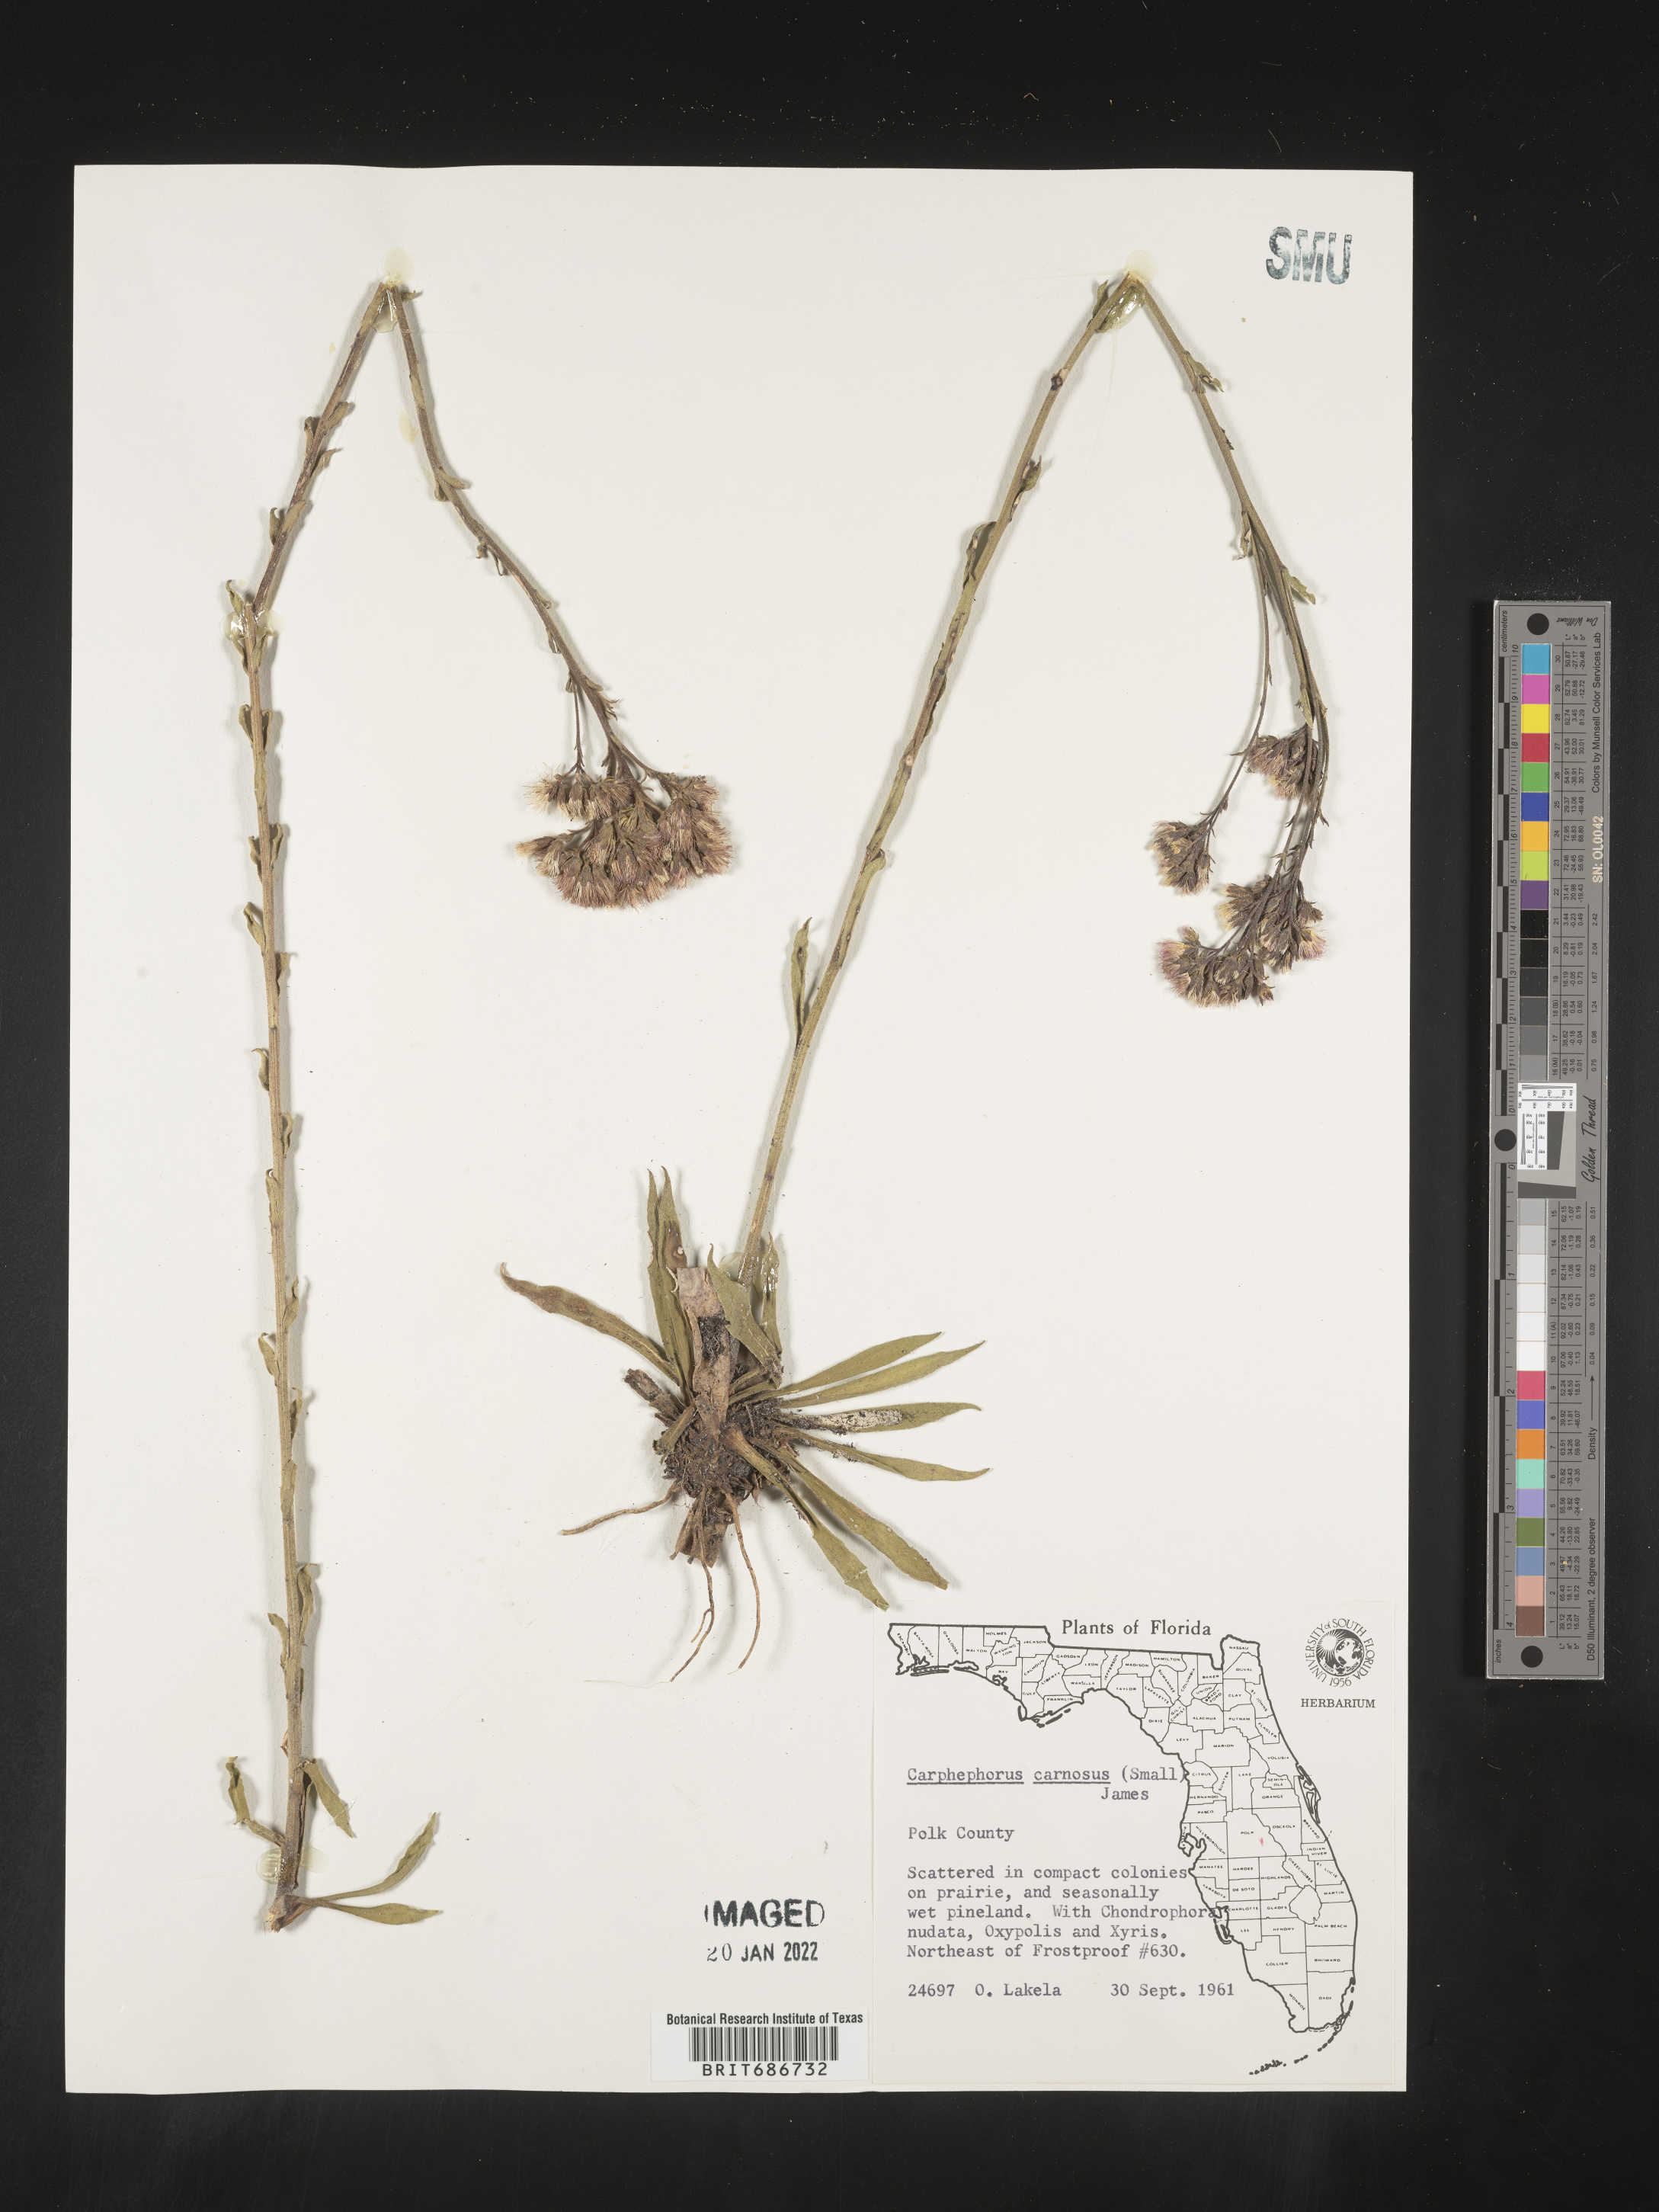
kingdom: Plantae
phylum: Tracheophyta
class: Magnoliopsida
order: Asterales
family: Asteraceae
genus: Carphephorus
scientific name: Carphephorus carnosus
